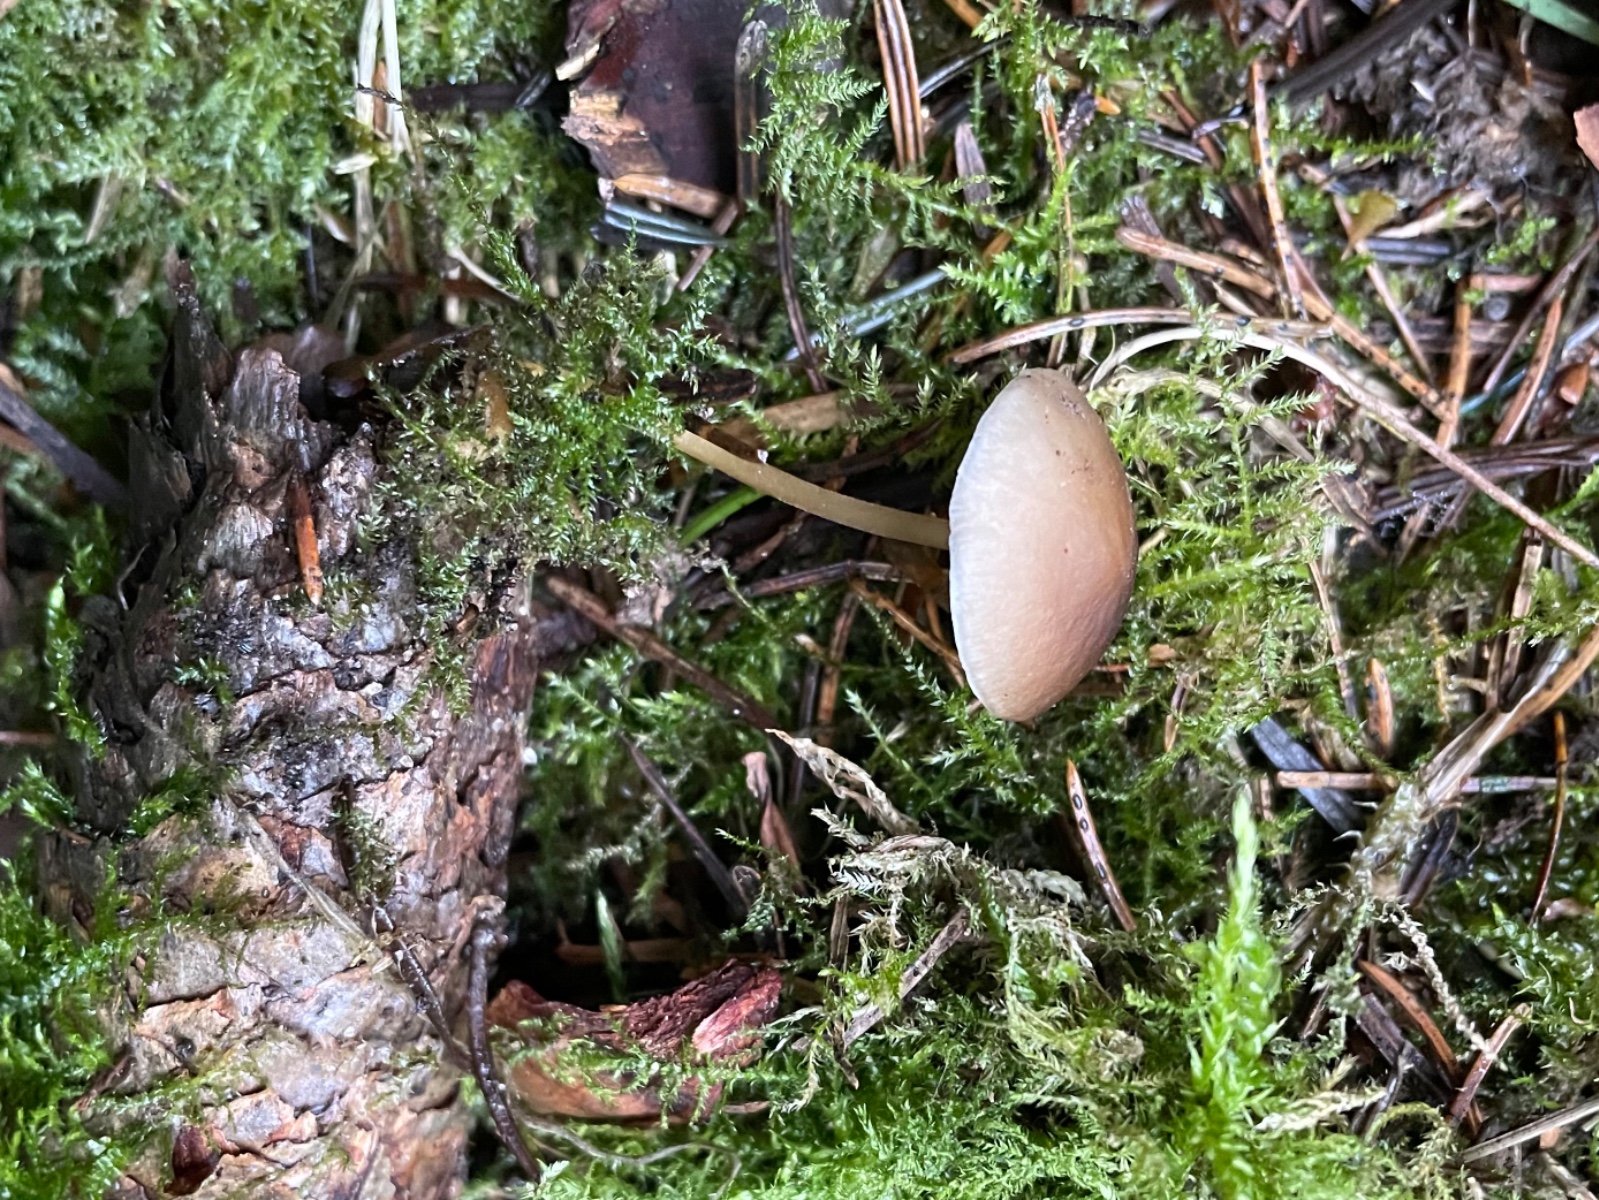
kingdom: Fungi
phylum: Basidiomycota
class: Agaricomycetes
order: Agaricales
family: Physalacriaceae
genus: Strobilurus
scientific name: Strobilurus esculentus
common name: gran-koglehat
